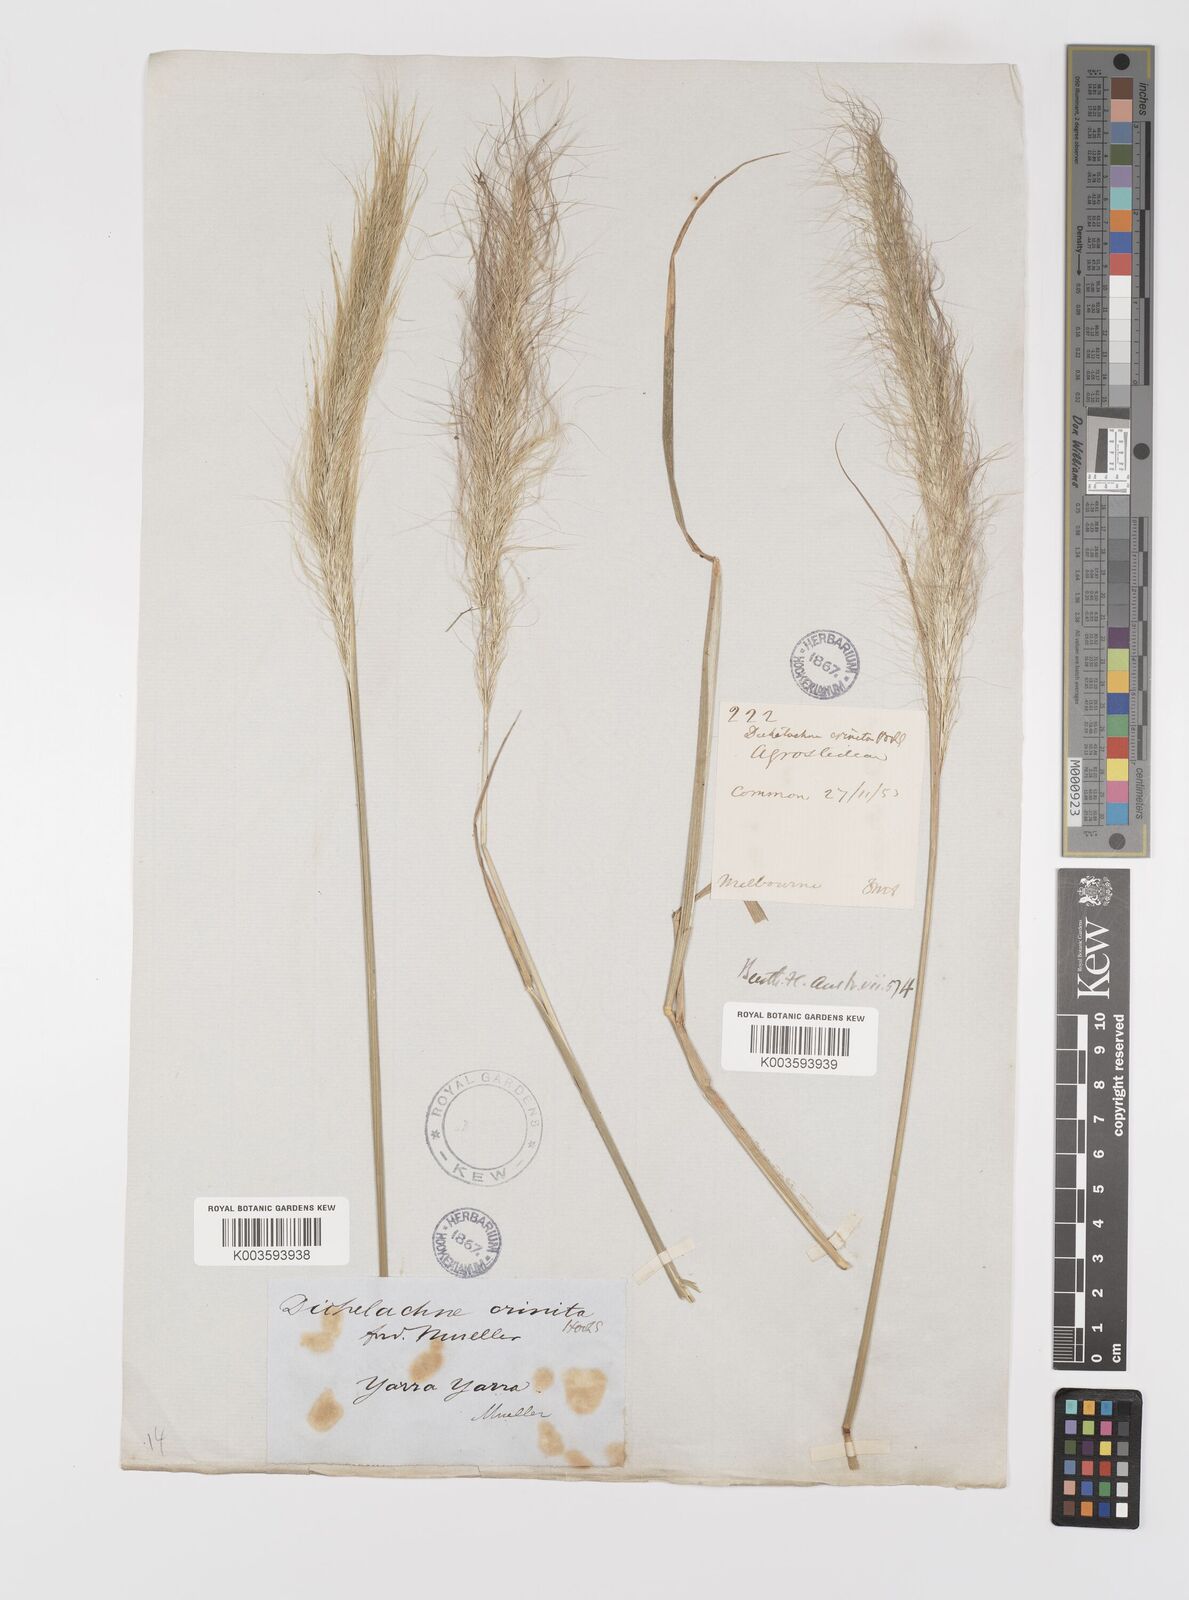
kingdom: Plantae
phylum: Tracheophyta
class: Liliopsida
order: Poales
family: Poaceae
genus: Dichelachne
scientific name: Dichelachne crinita
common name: Clovenfoot plumegrass
